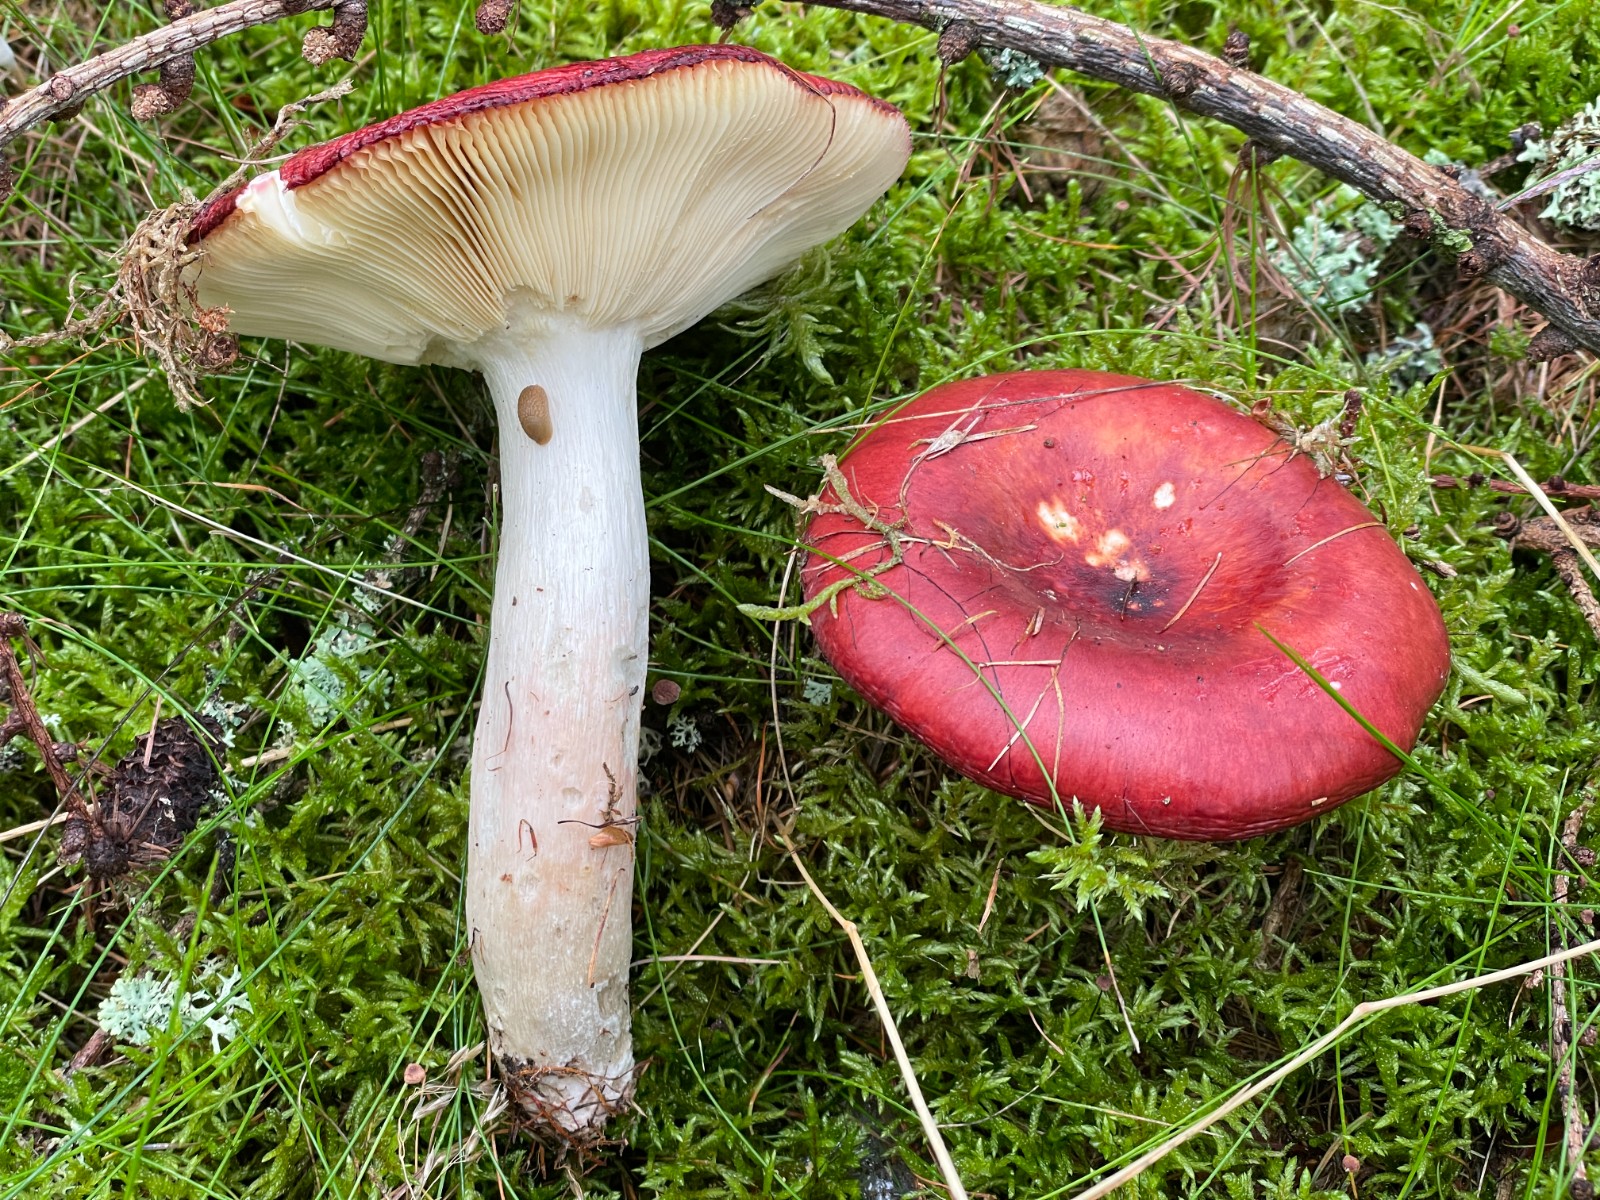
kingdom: Fungi
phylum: Basidiomycota
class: Agaricomycetes
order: Russulales
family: Russulaceae
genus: Russula
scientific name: Russula paludosa
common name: prægtig skørhat
